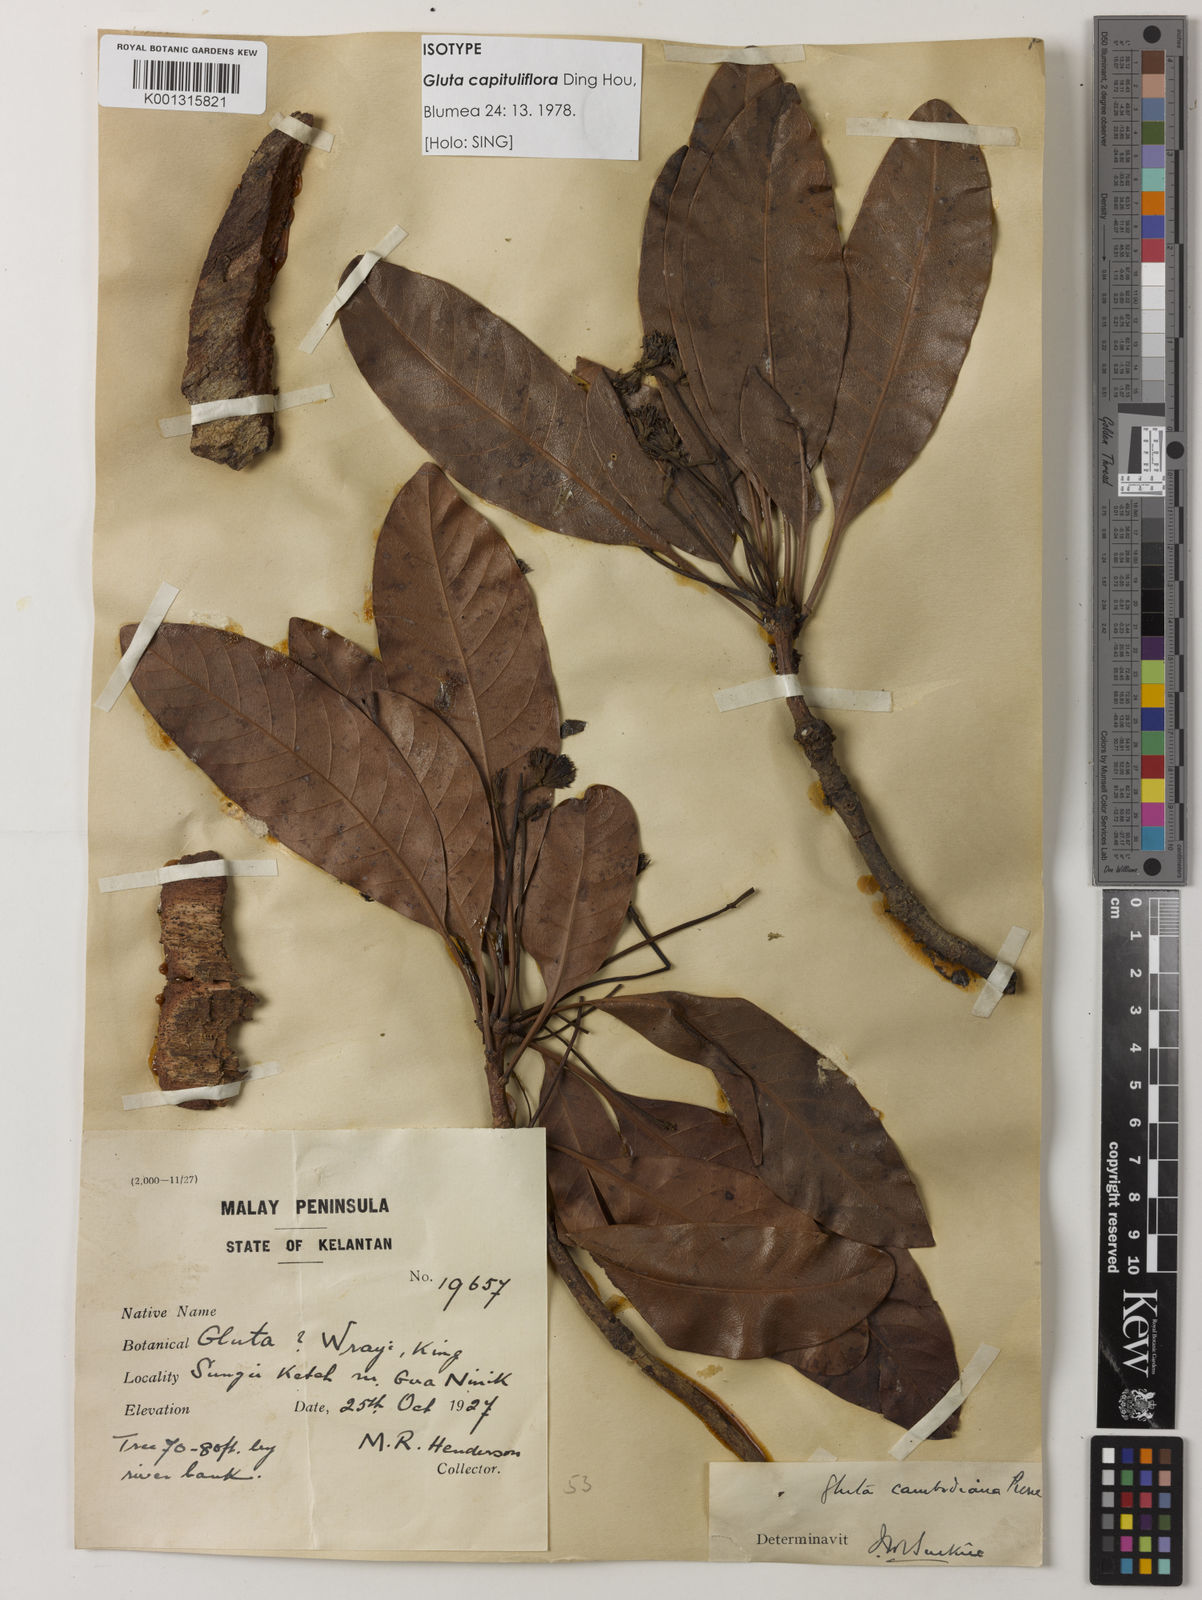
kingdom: Plantae
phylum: Tracheophyta
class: Magnoliopsida
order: Sapindales
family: Anacardiaceae
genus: Gluta
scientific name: Gluta capituliflora
